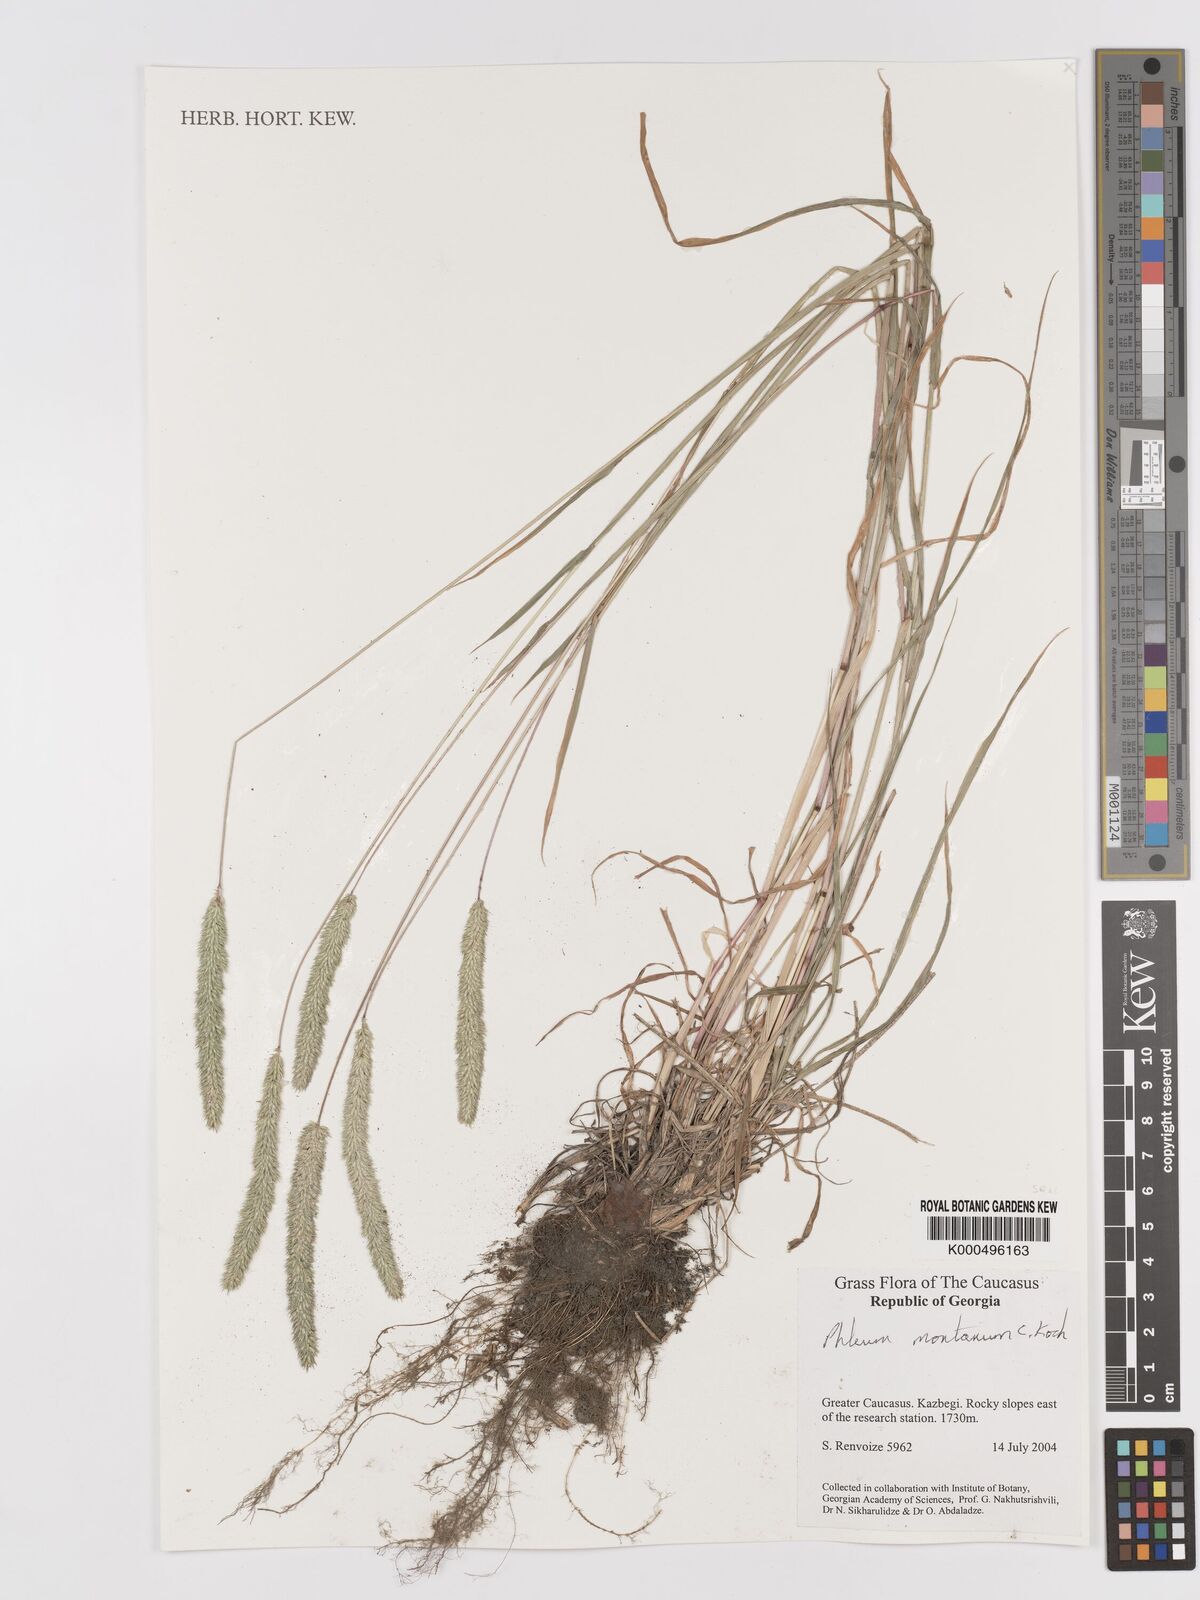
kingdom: Plantae
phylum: Tracheophyta
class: Liliopsida
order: Poales
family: Poaceae
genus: Phleum
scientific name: Phleum montanum
